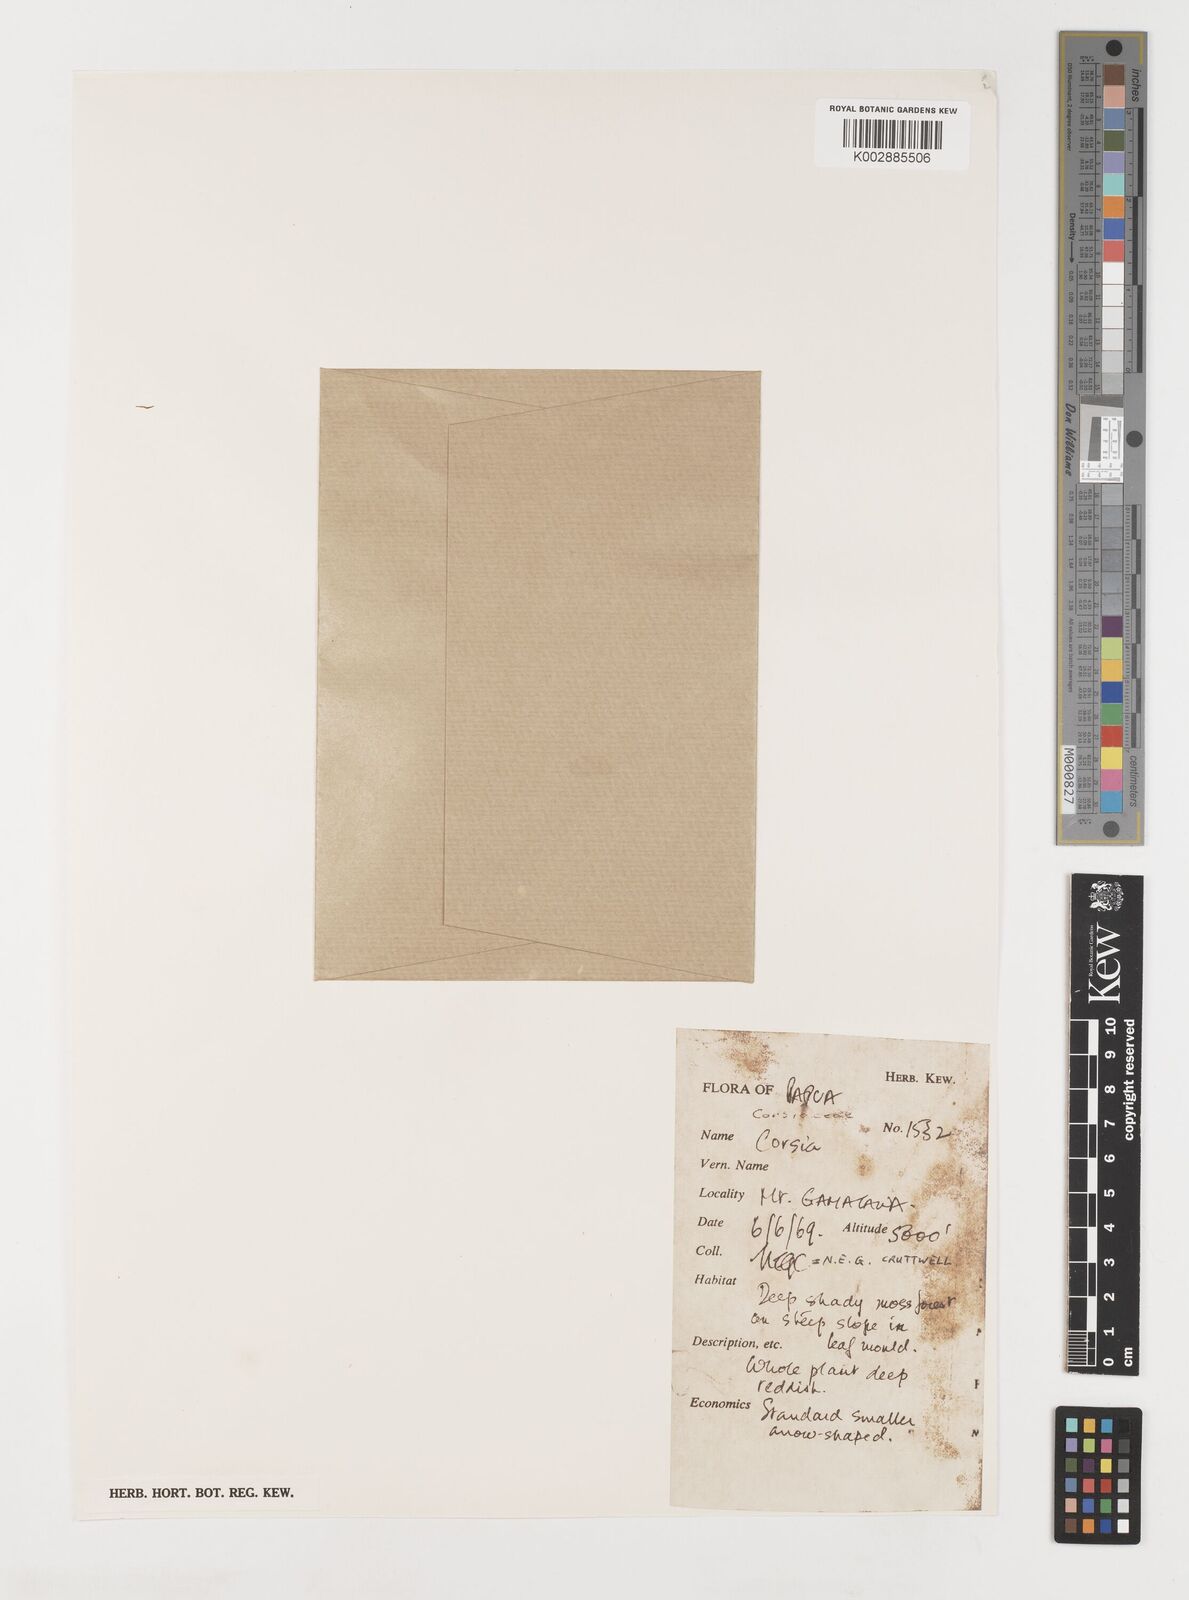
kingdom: Plantae
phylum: Tracheophyta
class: Liliopsida
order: Liliales
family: Corsiaceae
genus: Corsia
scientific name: Corsia
